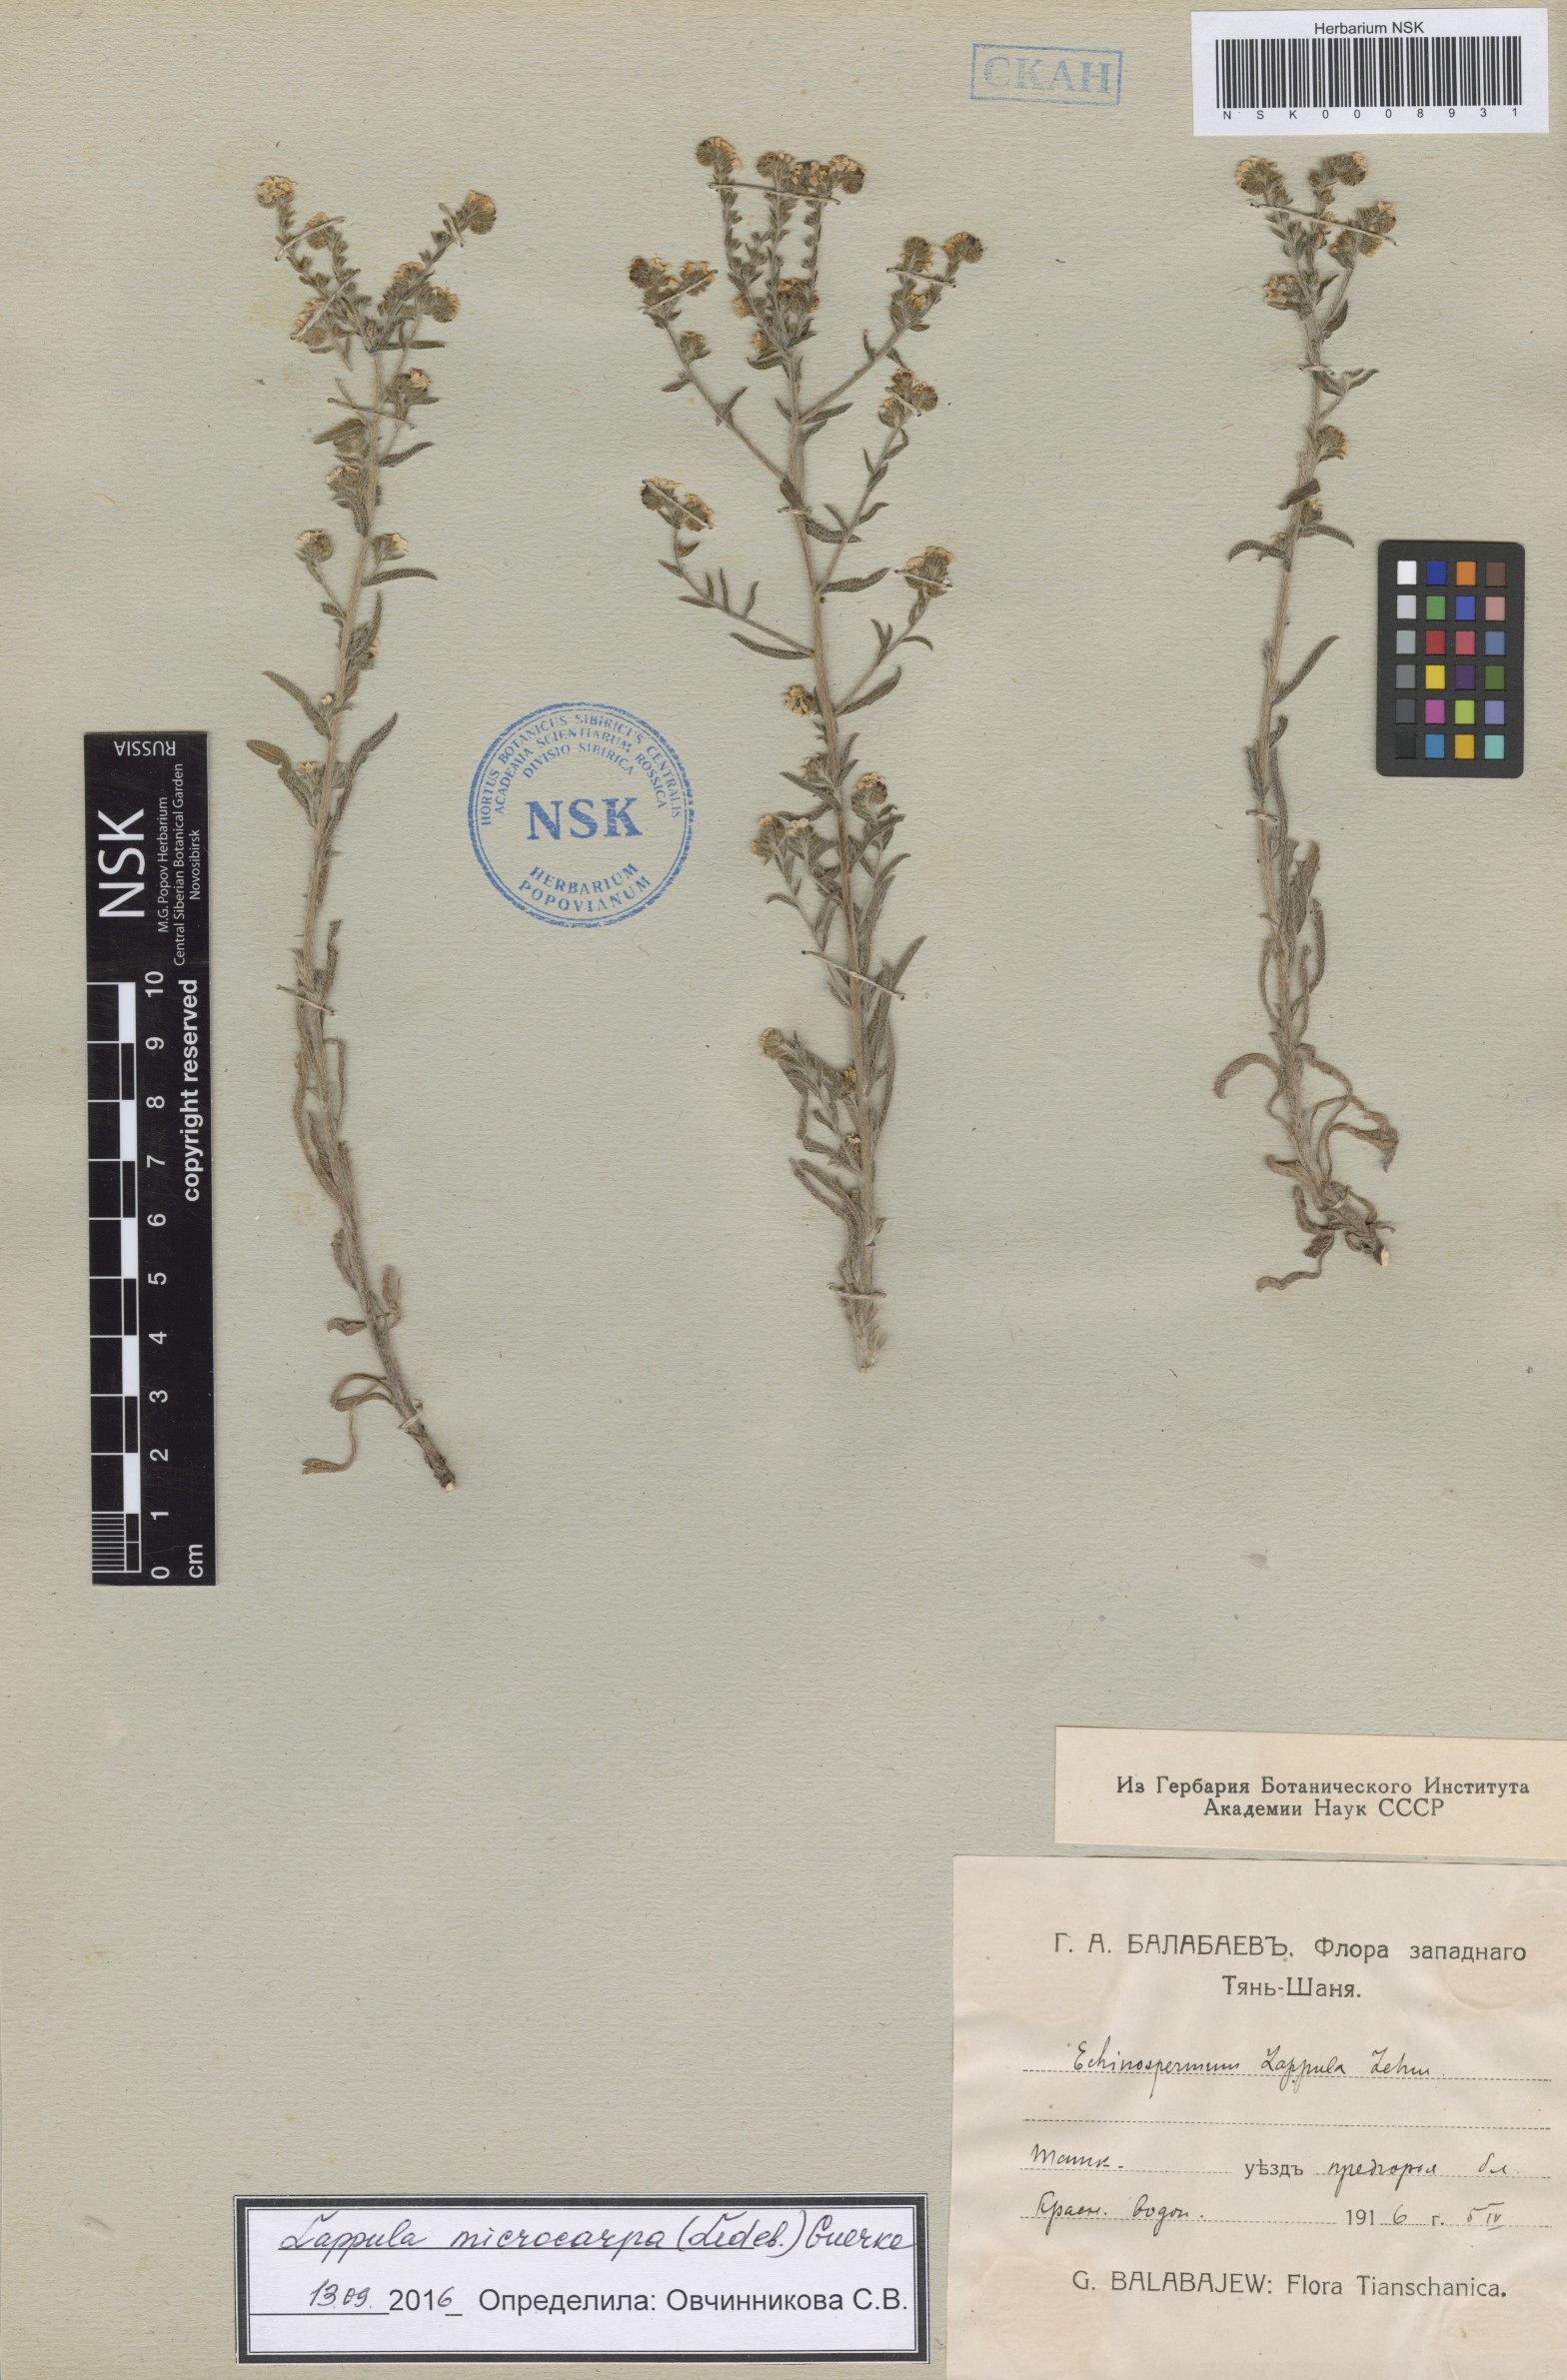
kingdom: Plantae
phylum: Tracheophyta
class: Magnoliopsida
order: Boraginales
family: Boraginaceae
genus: Lappula
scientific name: Lappula microcarpa
